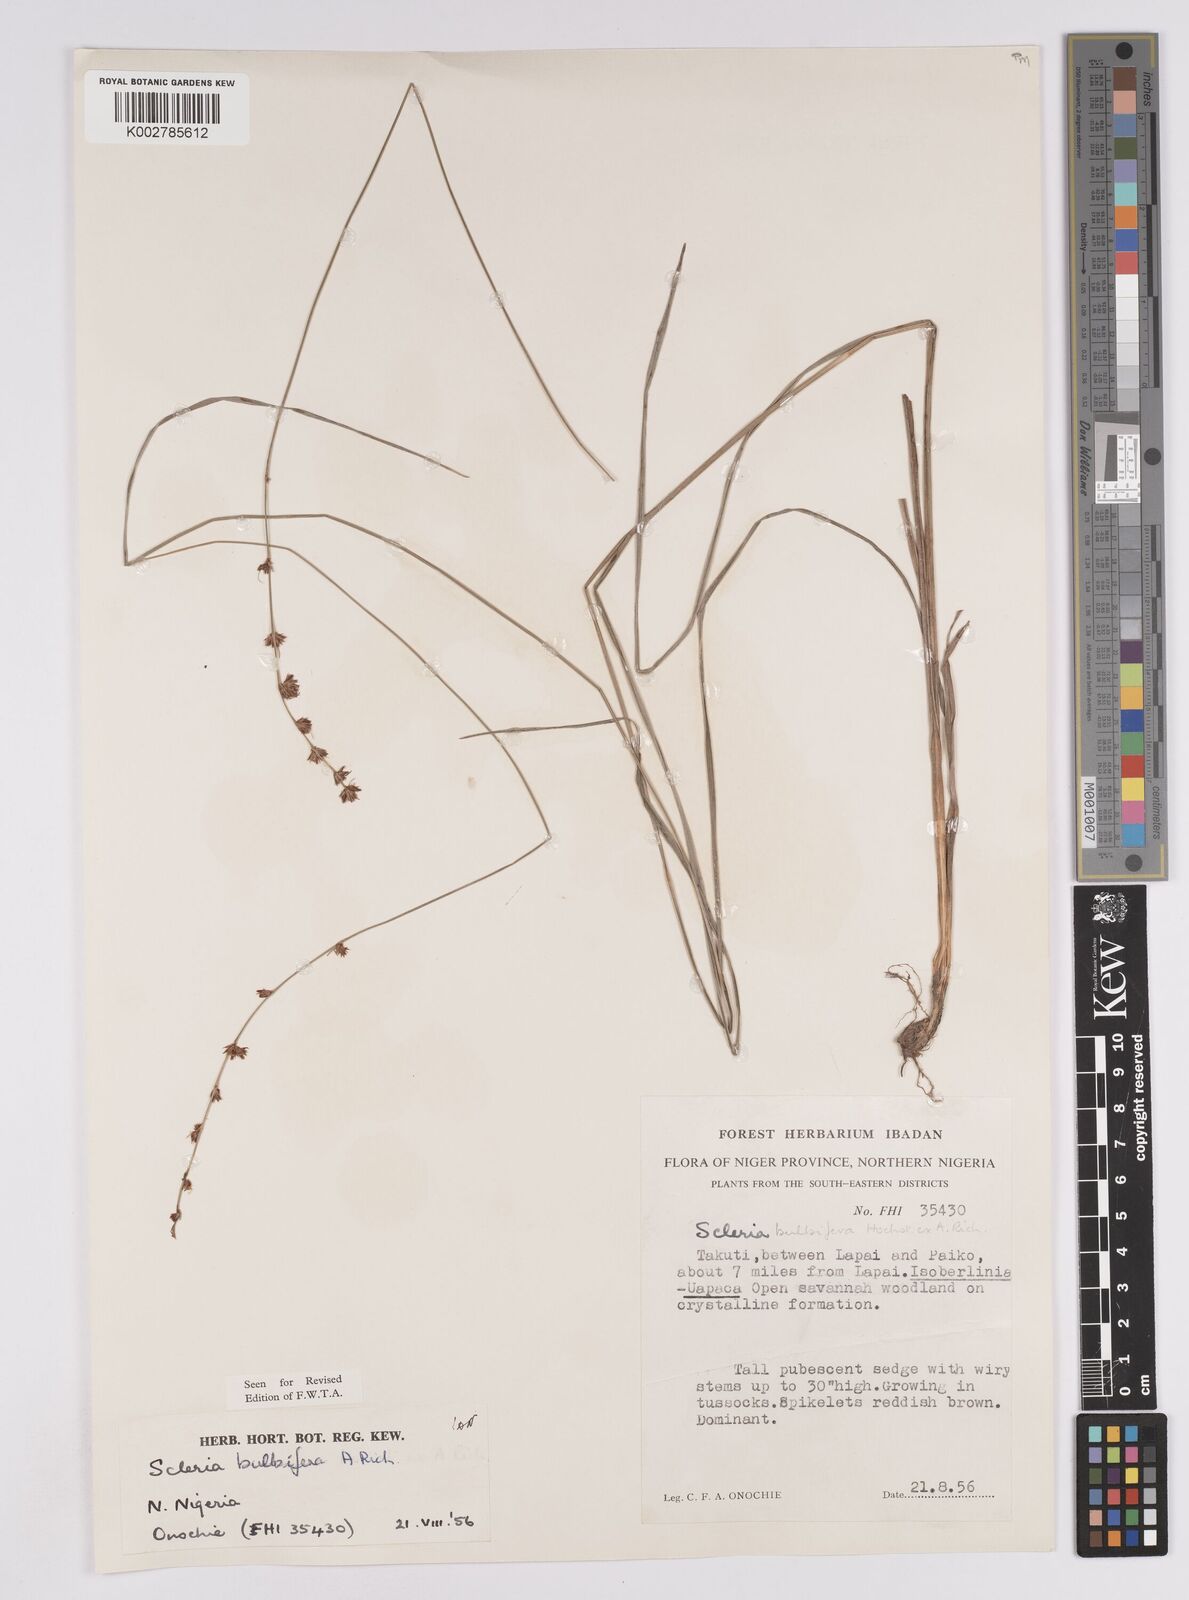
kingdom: Plantae
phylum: Tracheophyta
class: Liliopsida
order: Poales
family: Cyperaceae
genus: Scleria
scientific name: Scleria bulbifera
